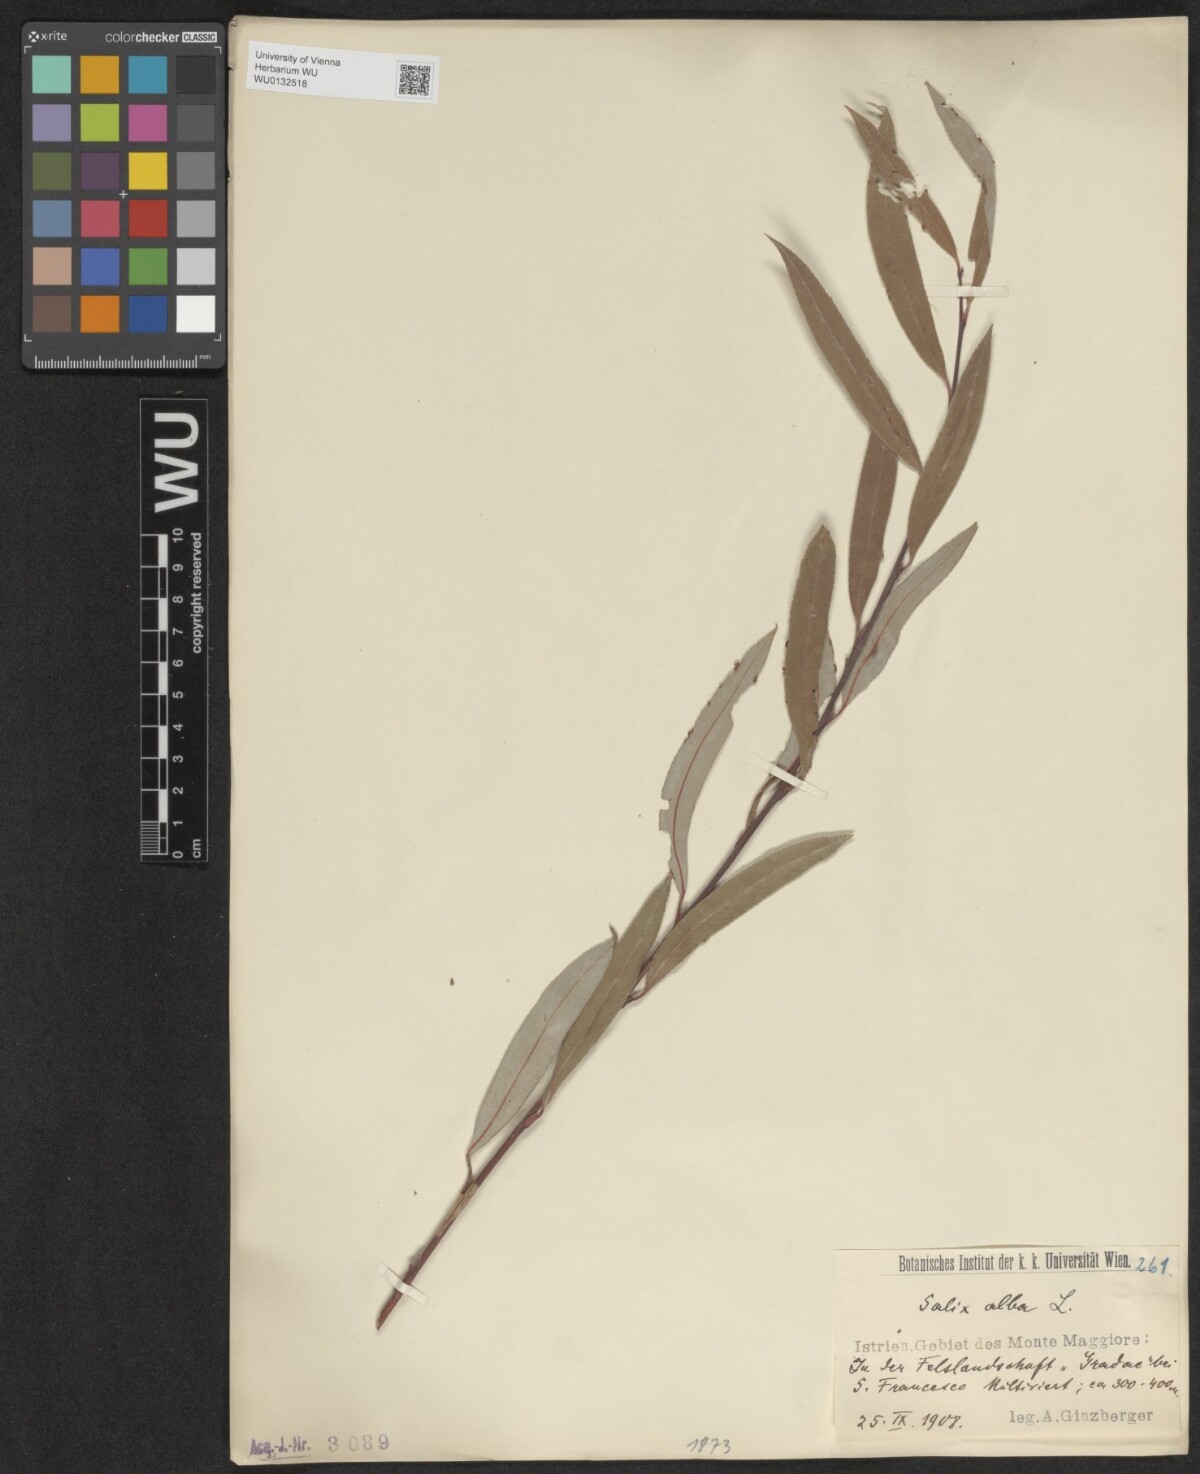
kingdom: Plantae
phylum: Tracheophyta
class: Magnoliopsida
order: Malpighiales
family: Salicaceae
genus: Salix
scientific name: Salix alba
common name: White willow
